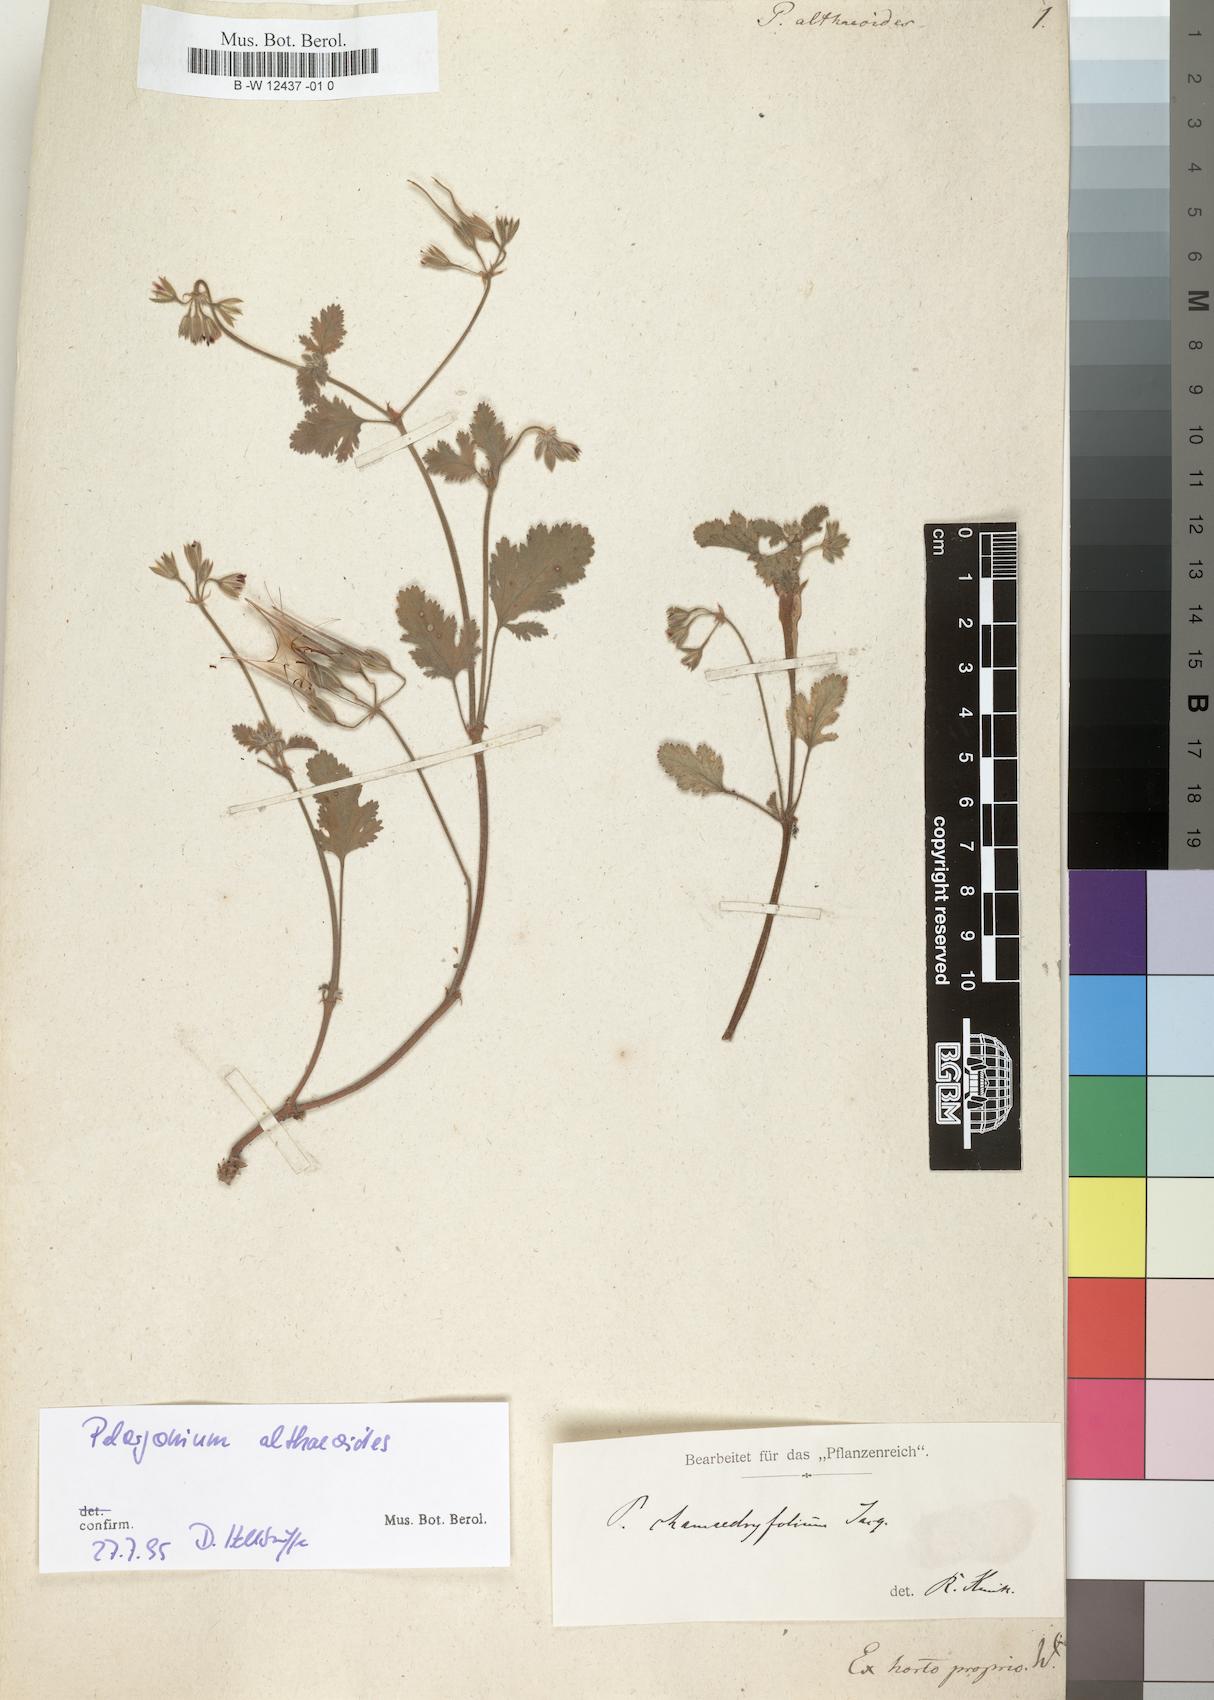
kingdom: Plantae
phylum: Tracheophyta
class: Magnoliopsida
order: Geraniales
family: Geraniaceae
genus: Pelargonium
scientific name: Pelargonium althaeoides
